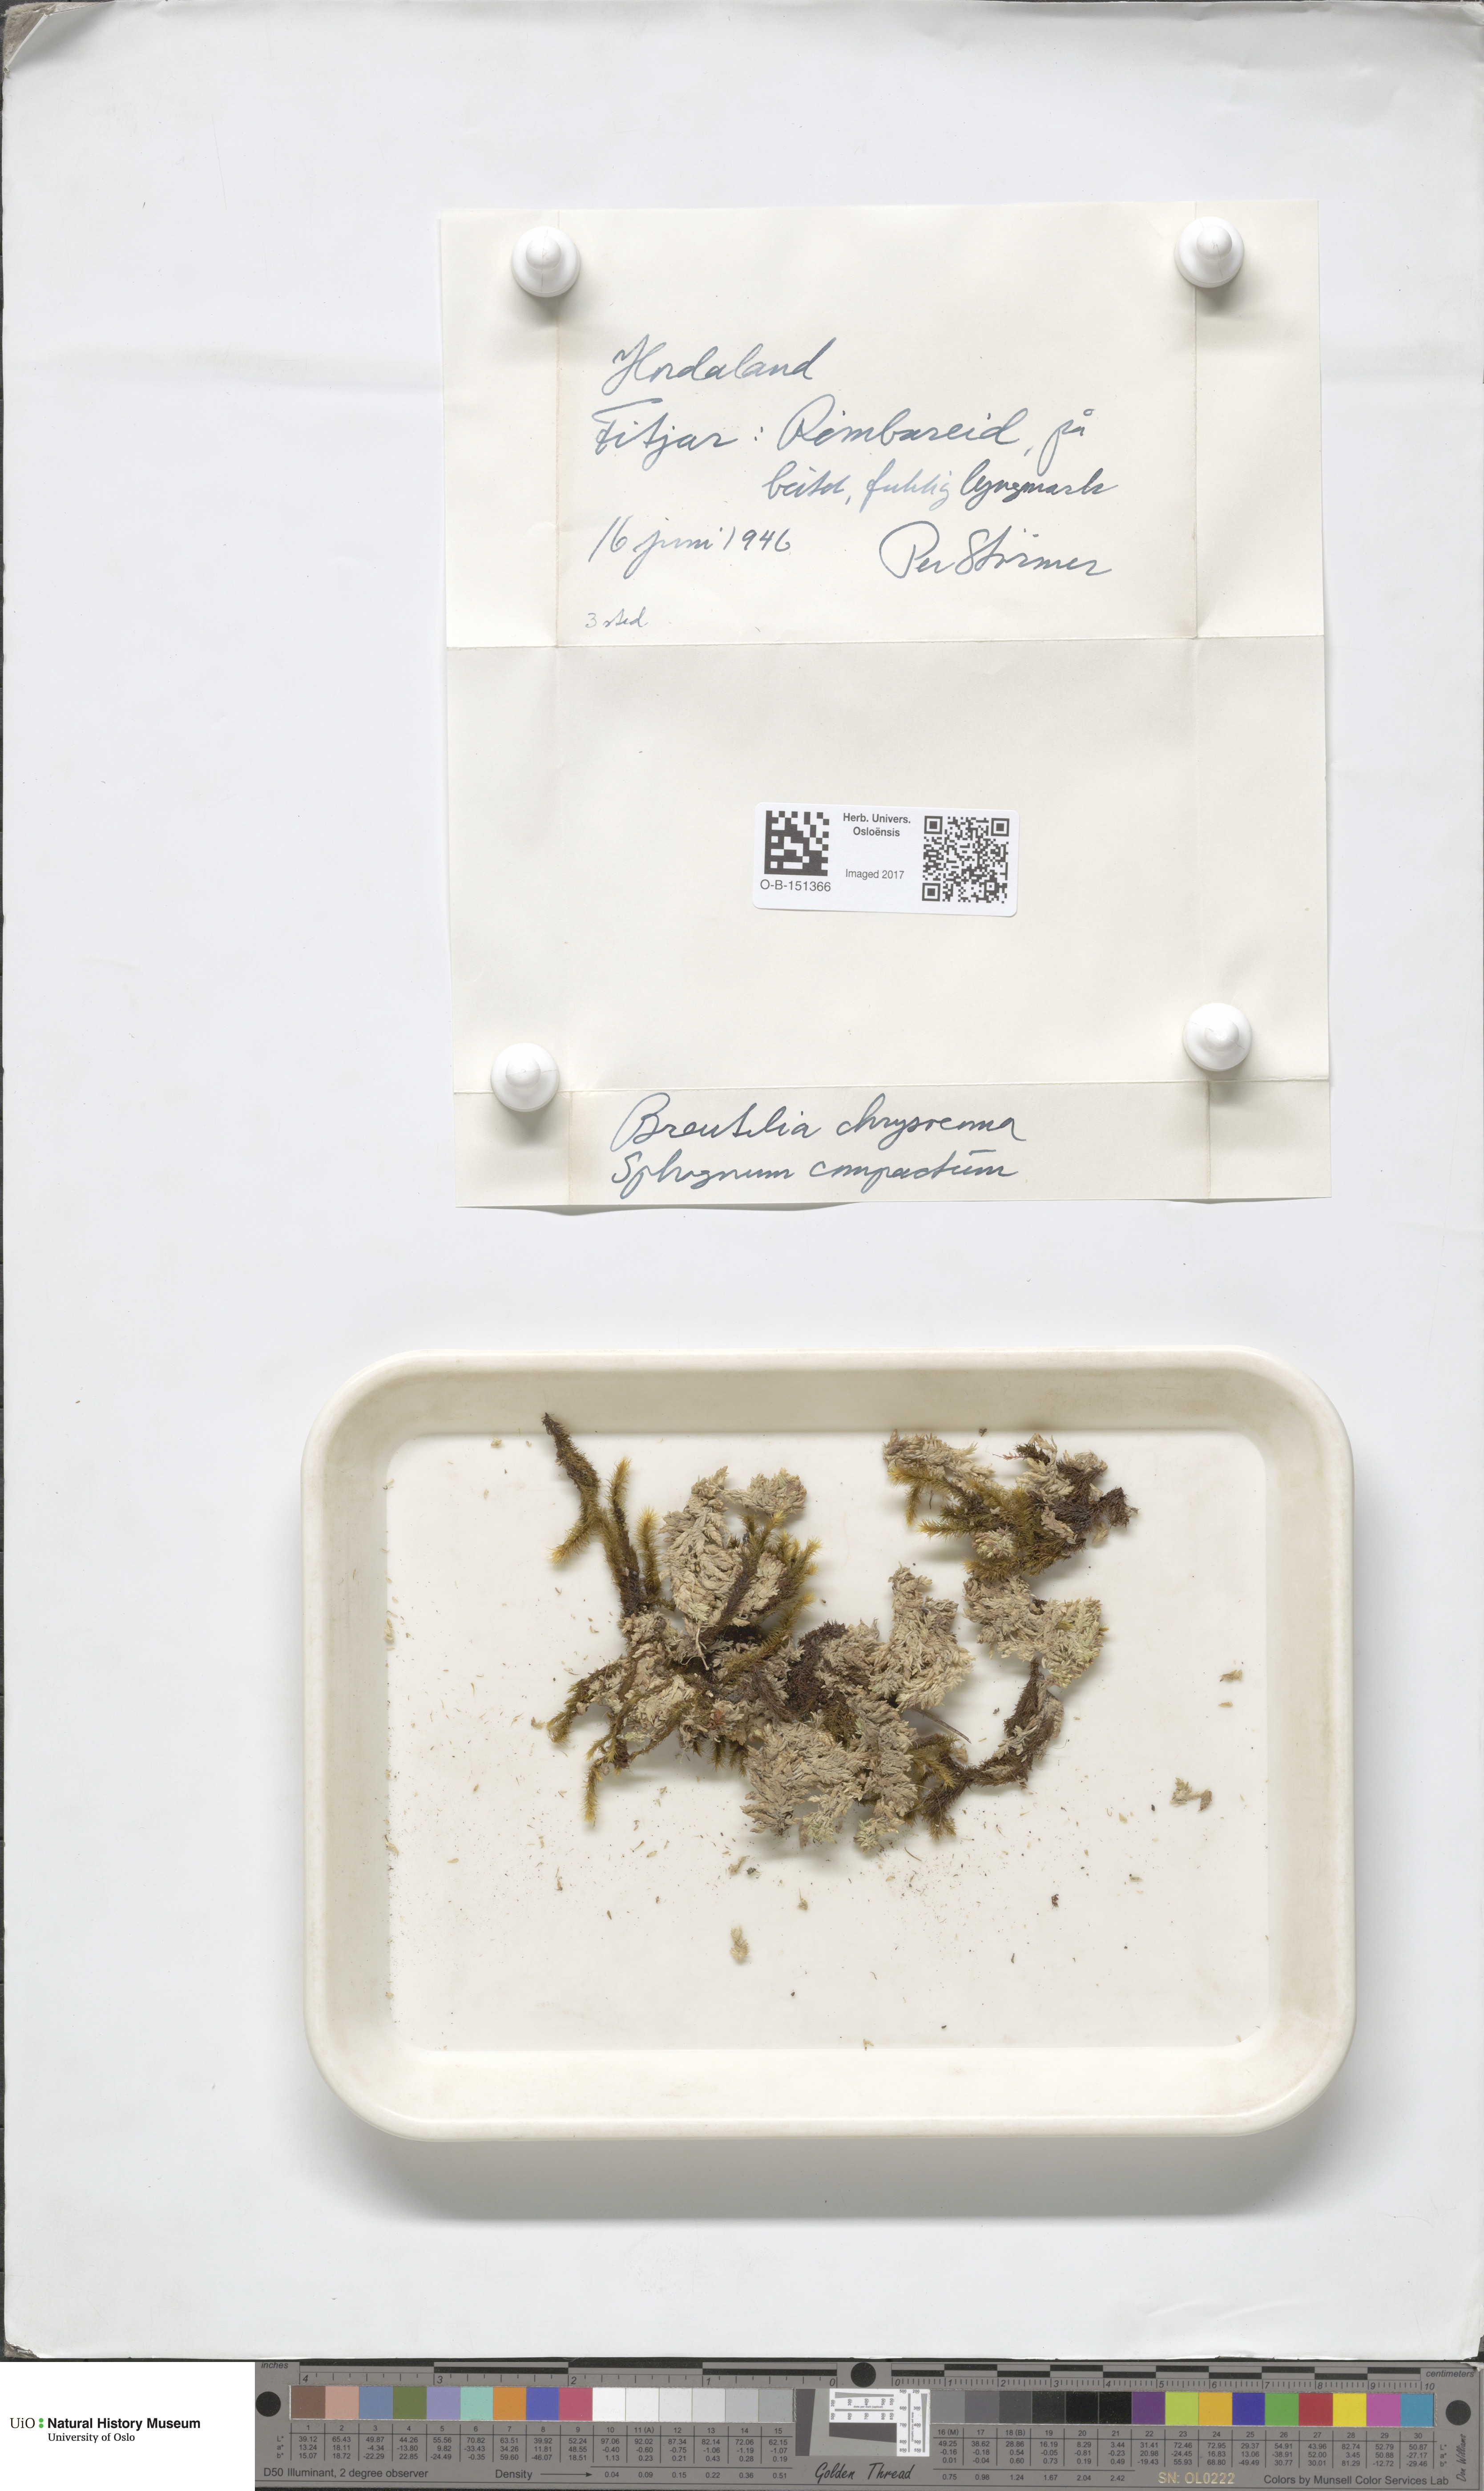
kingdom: Plantae
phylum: Bryophyta
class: Bryopsida
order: Bartramiales
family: Bartramiaceae
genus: Breutelia
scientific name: Breutelia chrysocoma
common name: Bottle-brush moss
